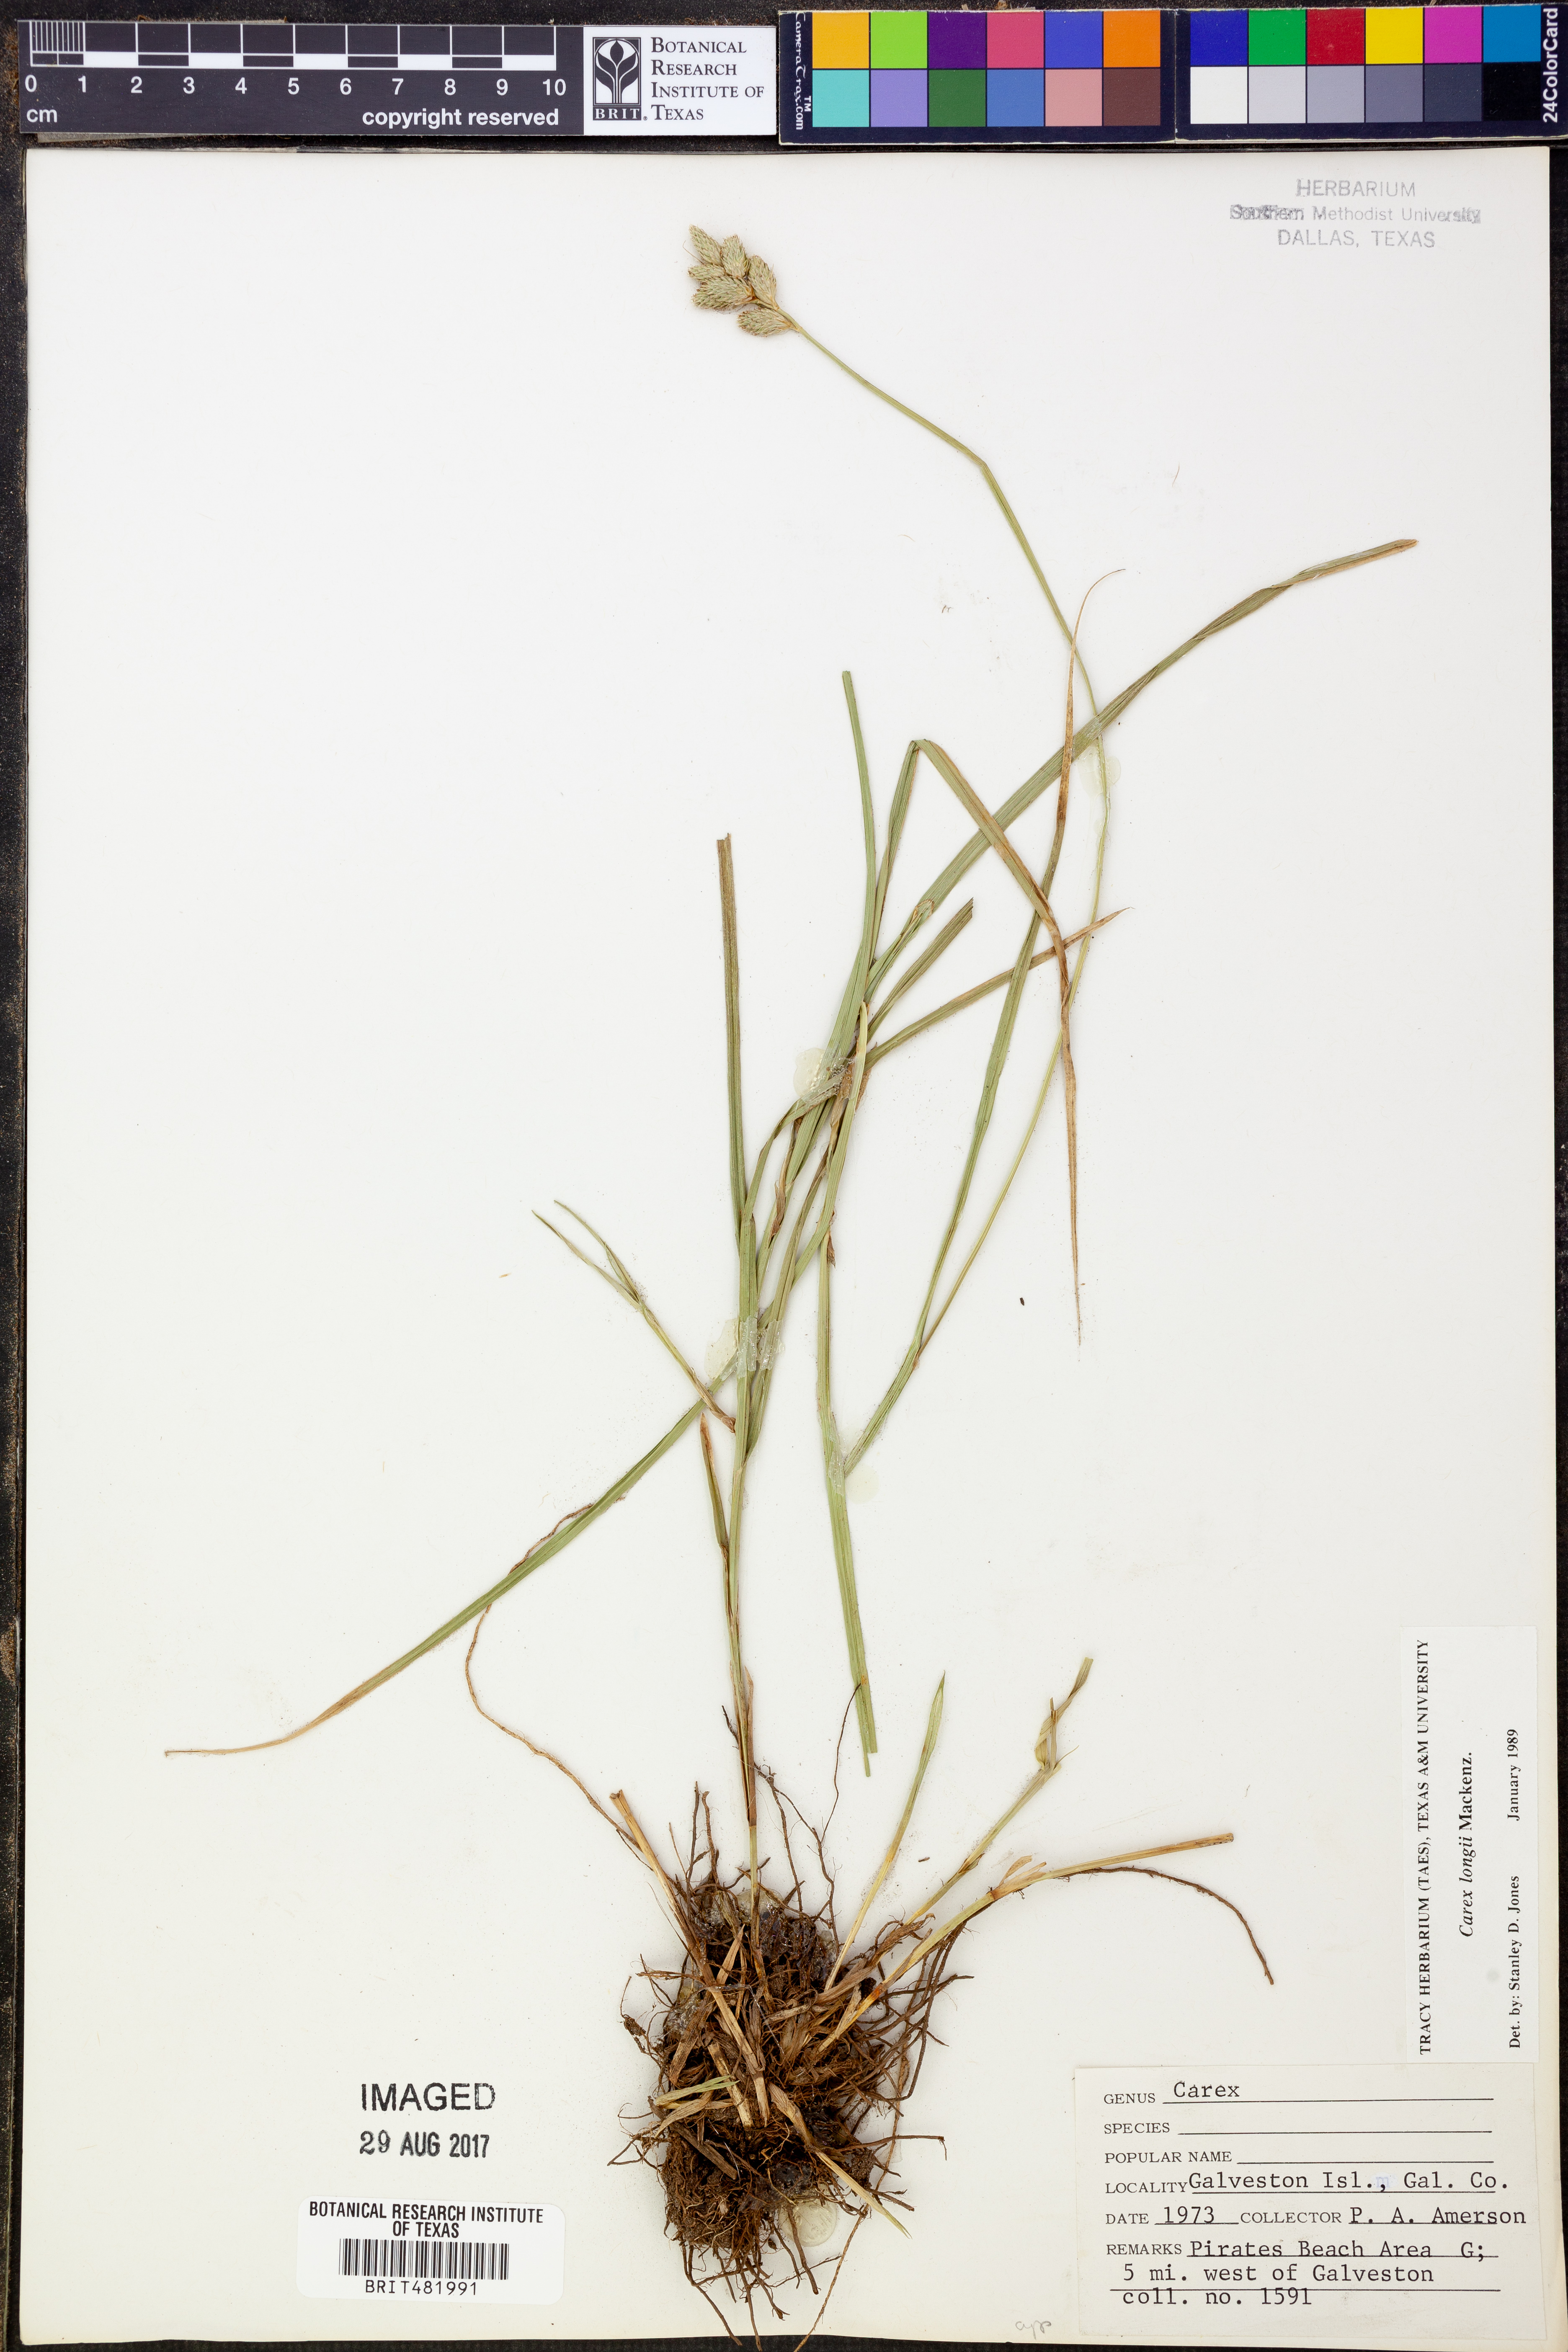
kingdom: Plantae
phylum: Tracheophyta
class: Liliopsida
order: Poales
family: Cyperaceae
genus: Carex
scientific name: Carex longii
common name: Long's sedge
